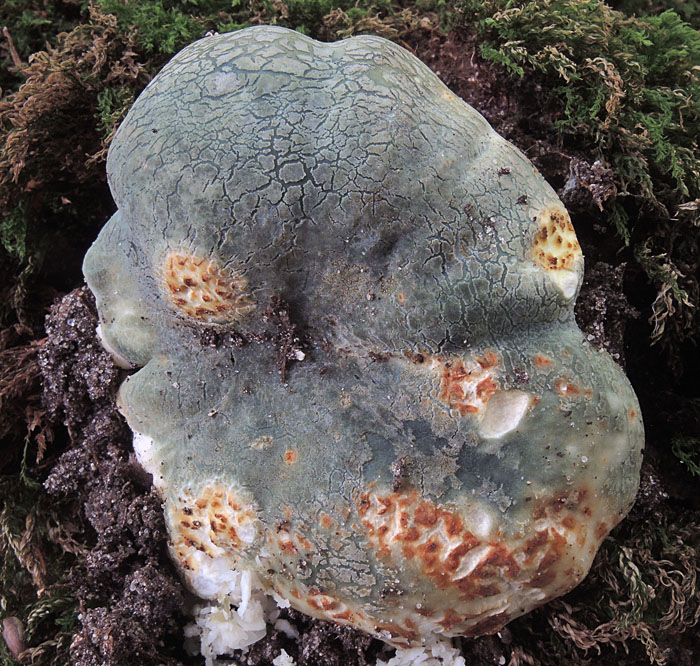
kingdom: Fungi
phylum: Basidiomycota
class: Agaricomycetes
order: Russulales
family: Russulaceae
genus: Russula
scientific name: Russula virescens
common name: spanskgrøn skørhat
